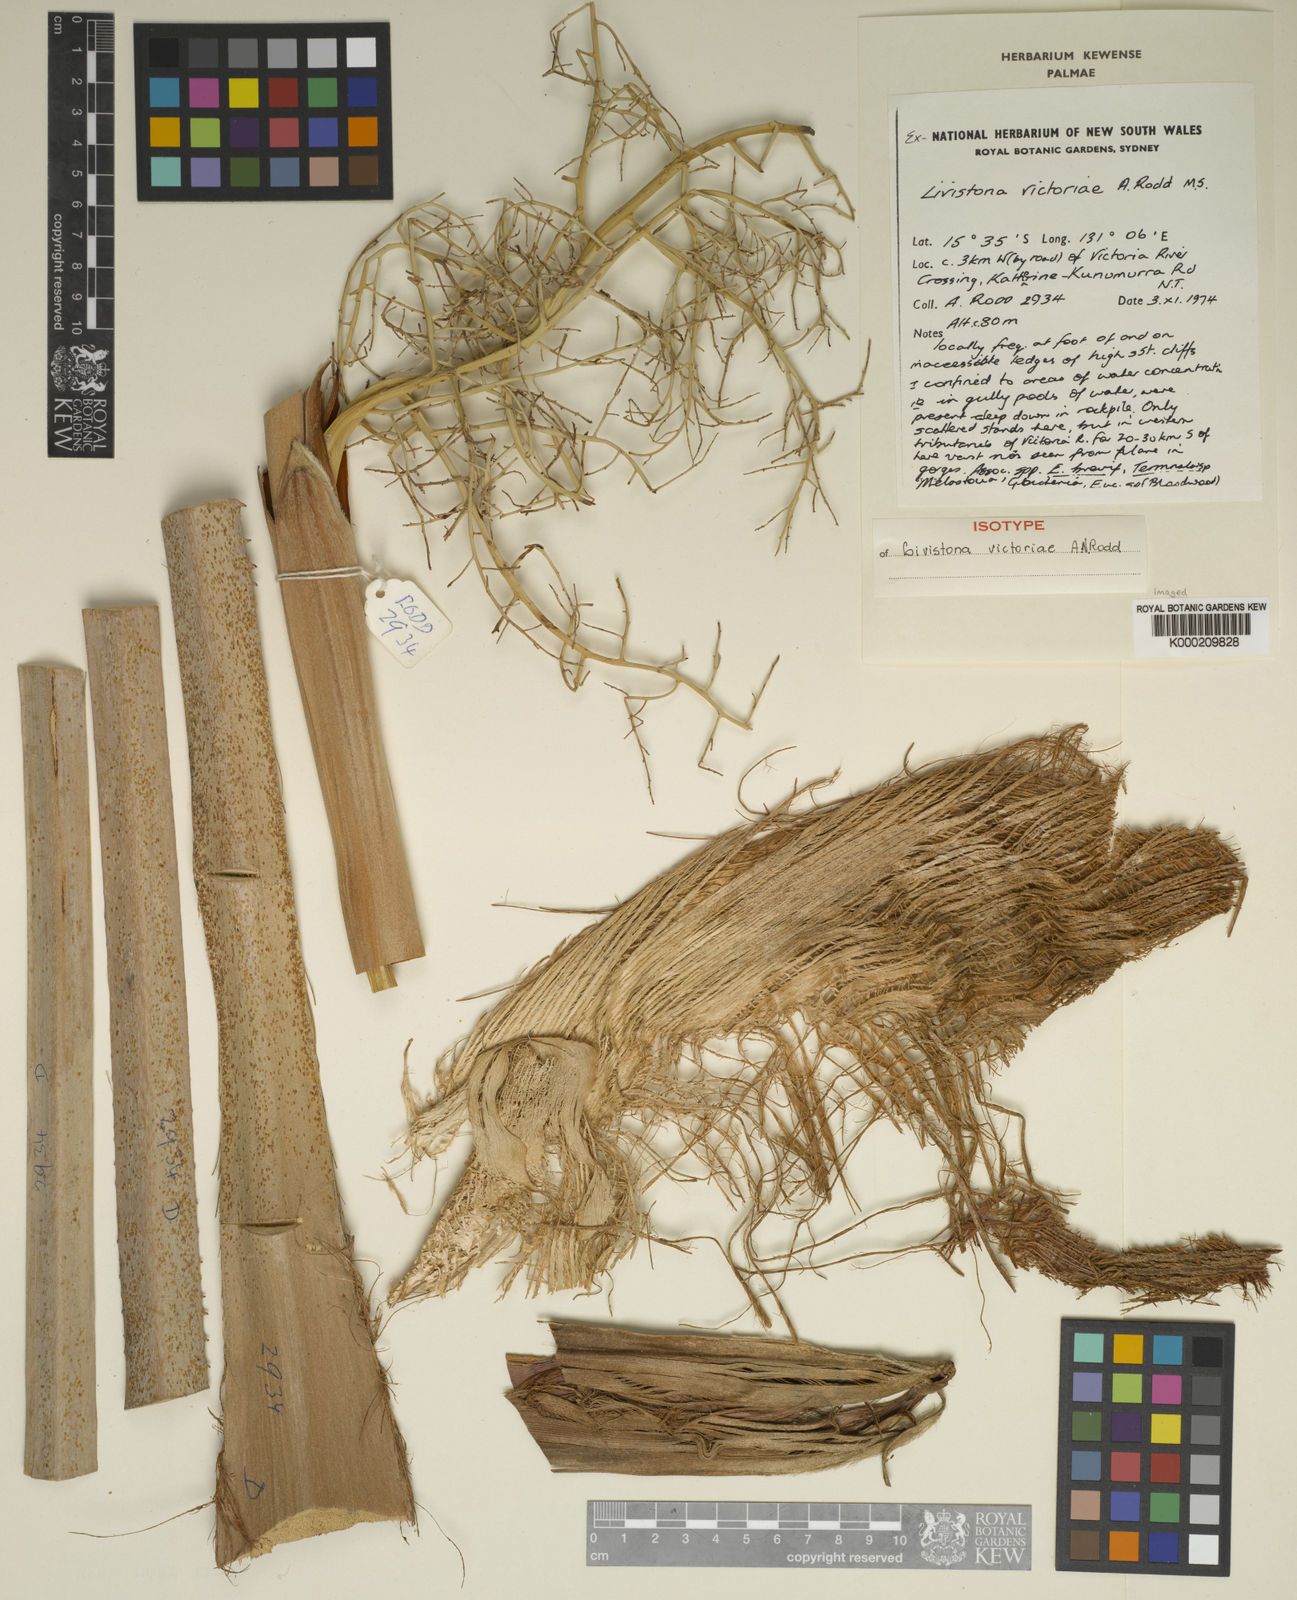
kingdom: Plantae
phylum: Tracheophyta
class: Liliopsida
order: Arecales
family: Arecaceae
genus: Livistona
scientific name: Livistona victoriae
